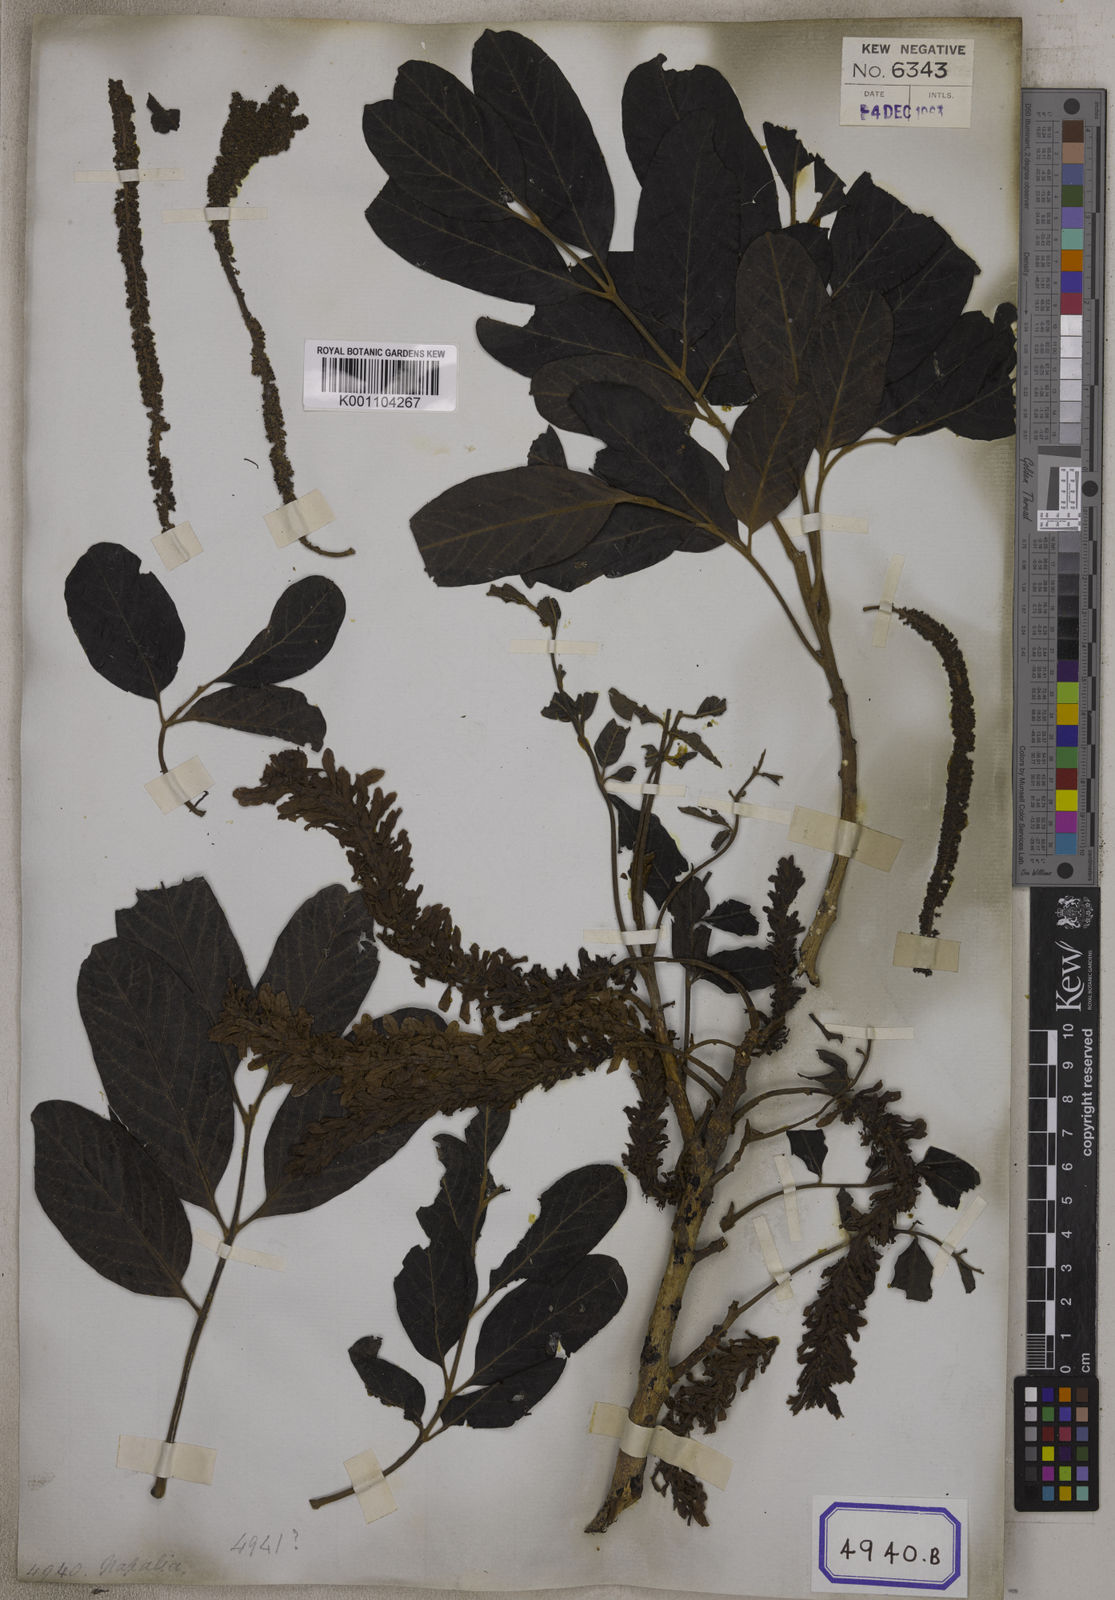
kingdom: Plantae
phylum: Tracheophyta
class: Magnoliopsida
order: Fagales
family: Juglandaceae
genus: Engelhardia
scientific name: Engelhardia spicata
